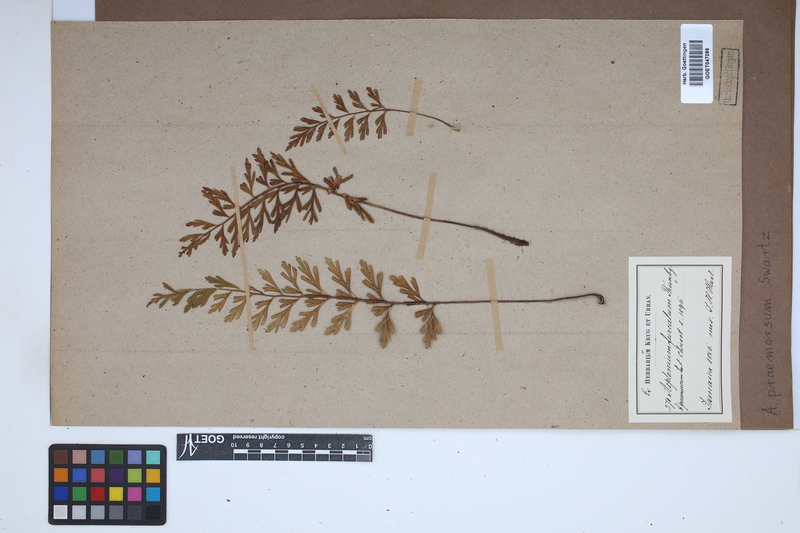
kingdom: Plantae
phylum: Tracheophyta
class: Polypodiopsida
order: Polypodiales
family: Aspleniaceae
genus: Asplenium
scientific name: Asplenium praemorsum
